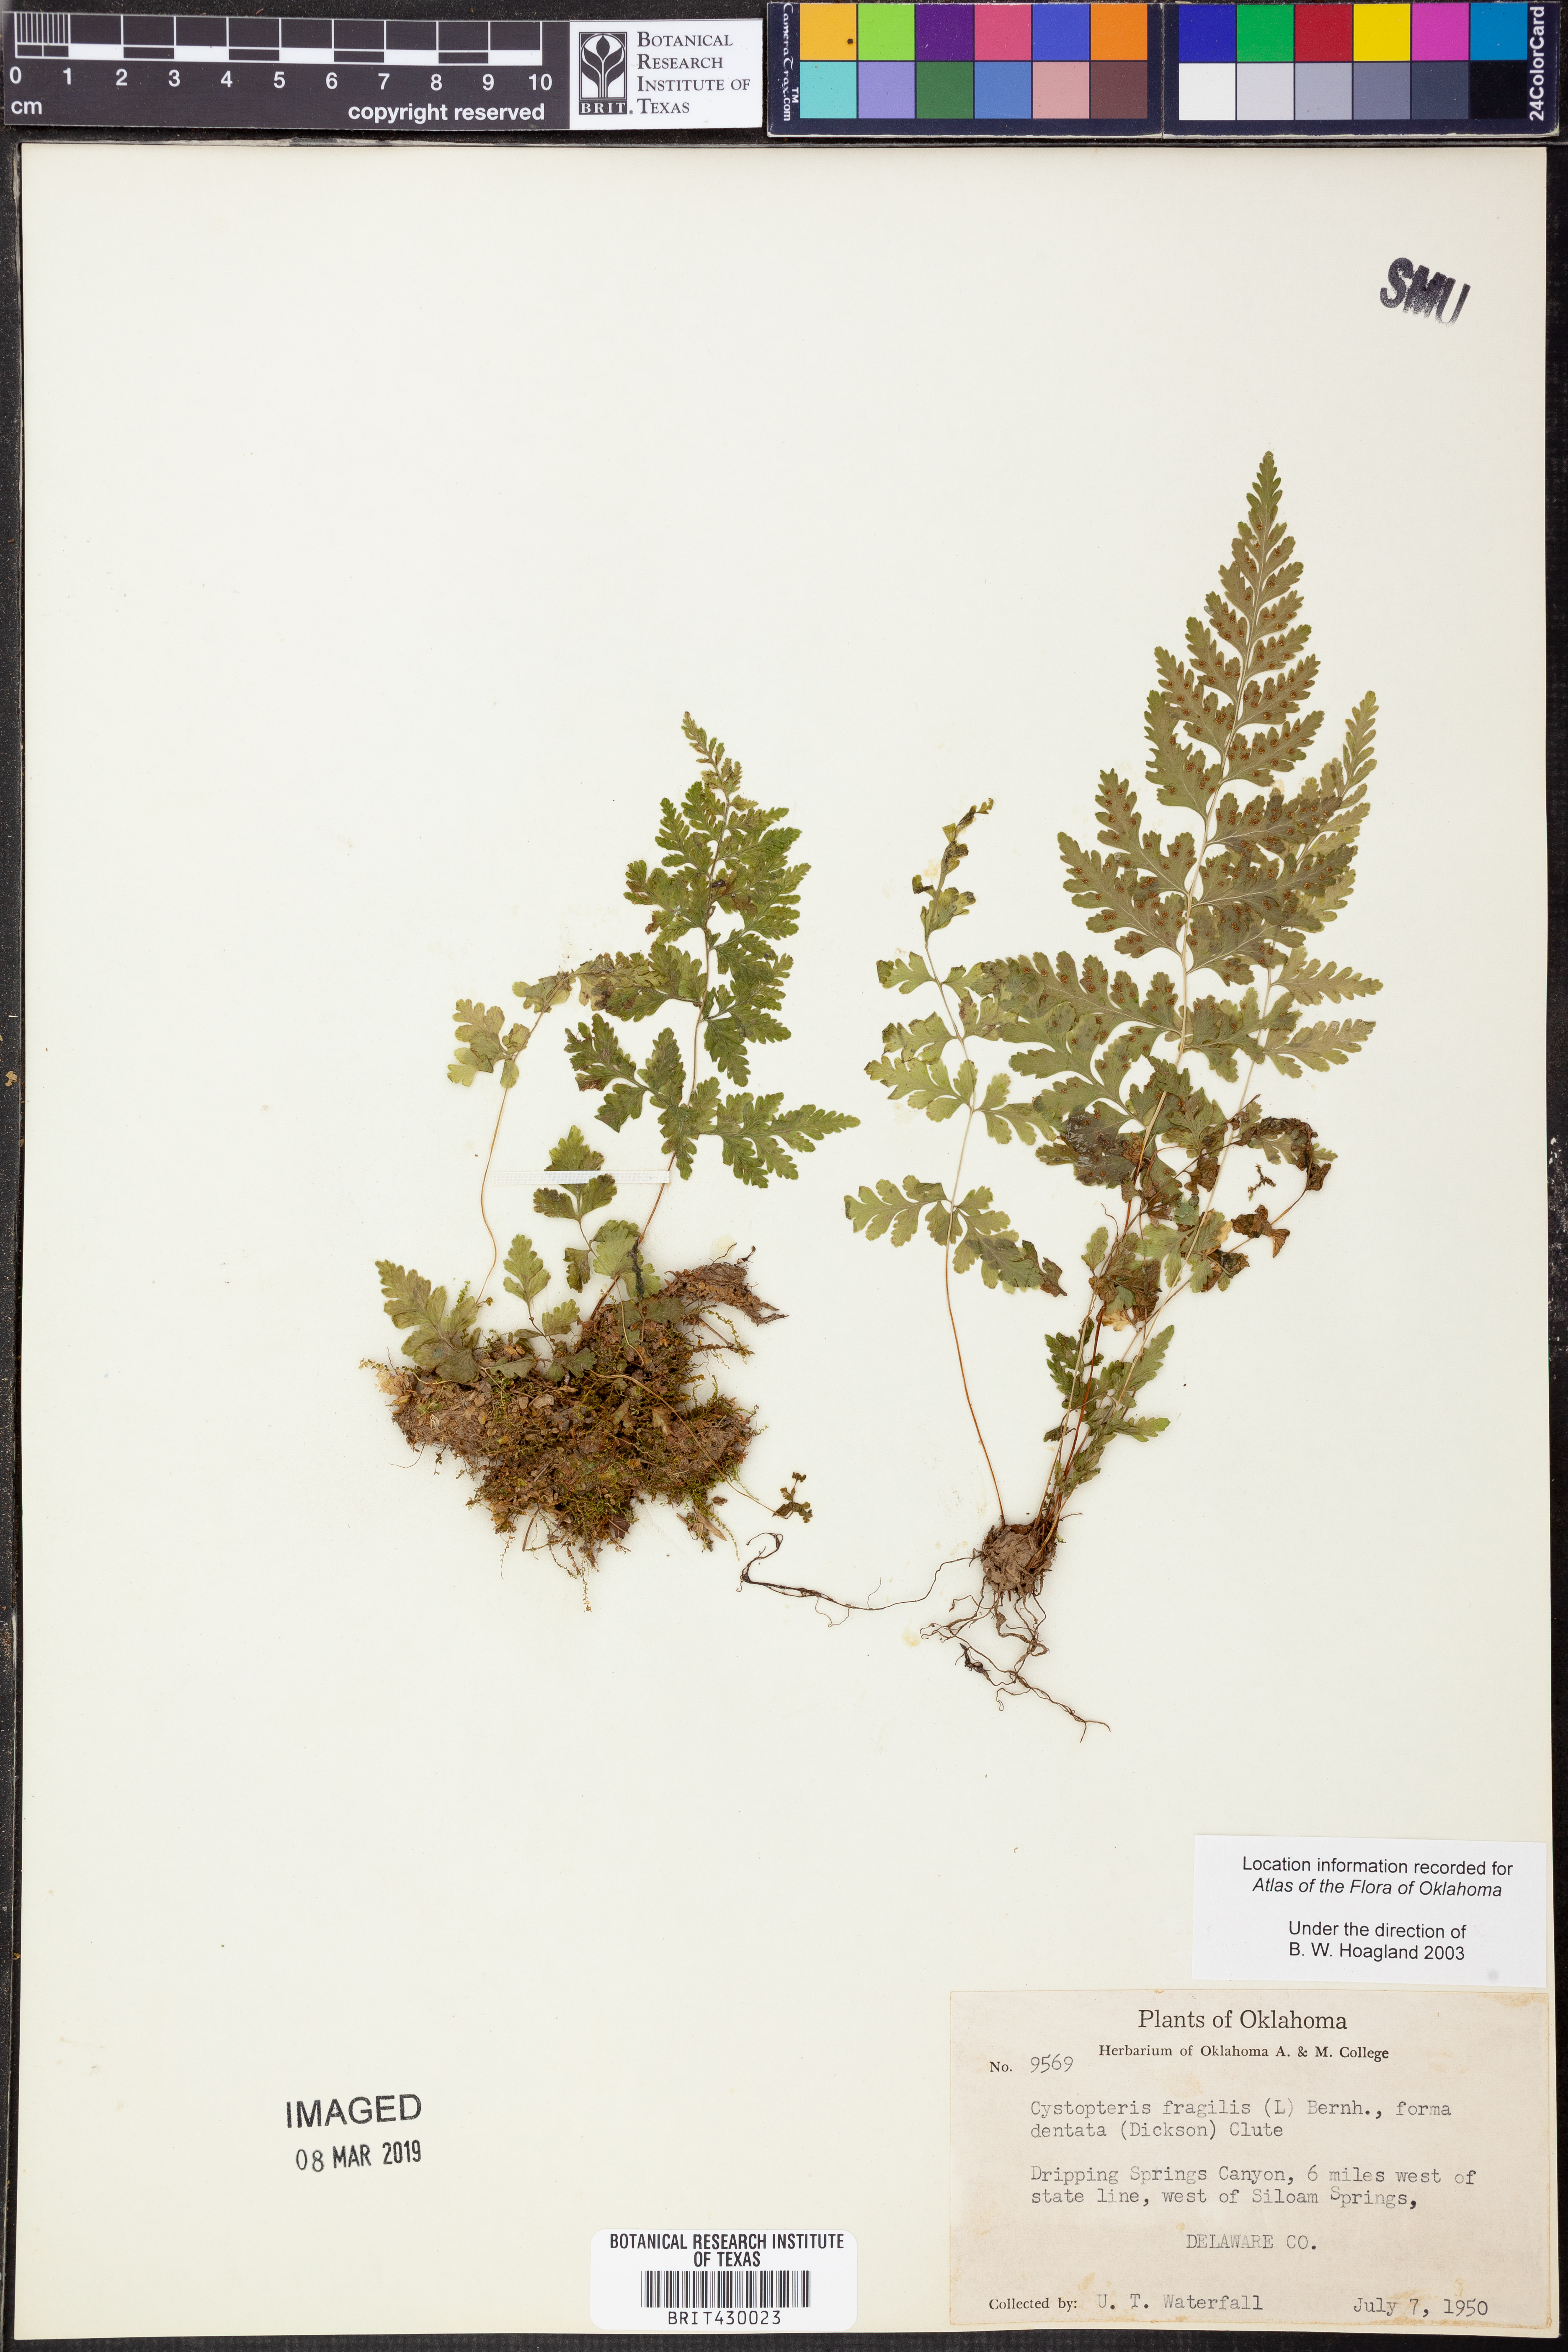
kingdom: Plantae
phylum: Tracheophyta
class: Polypodiopsida
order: Polypodiales
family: Cystopteridaceae
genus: Cystopteris
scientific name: Cystopteris fragilis
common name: Brittle bladder fern
